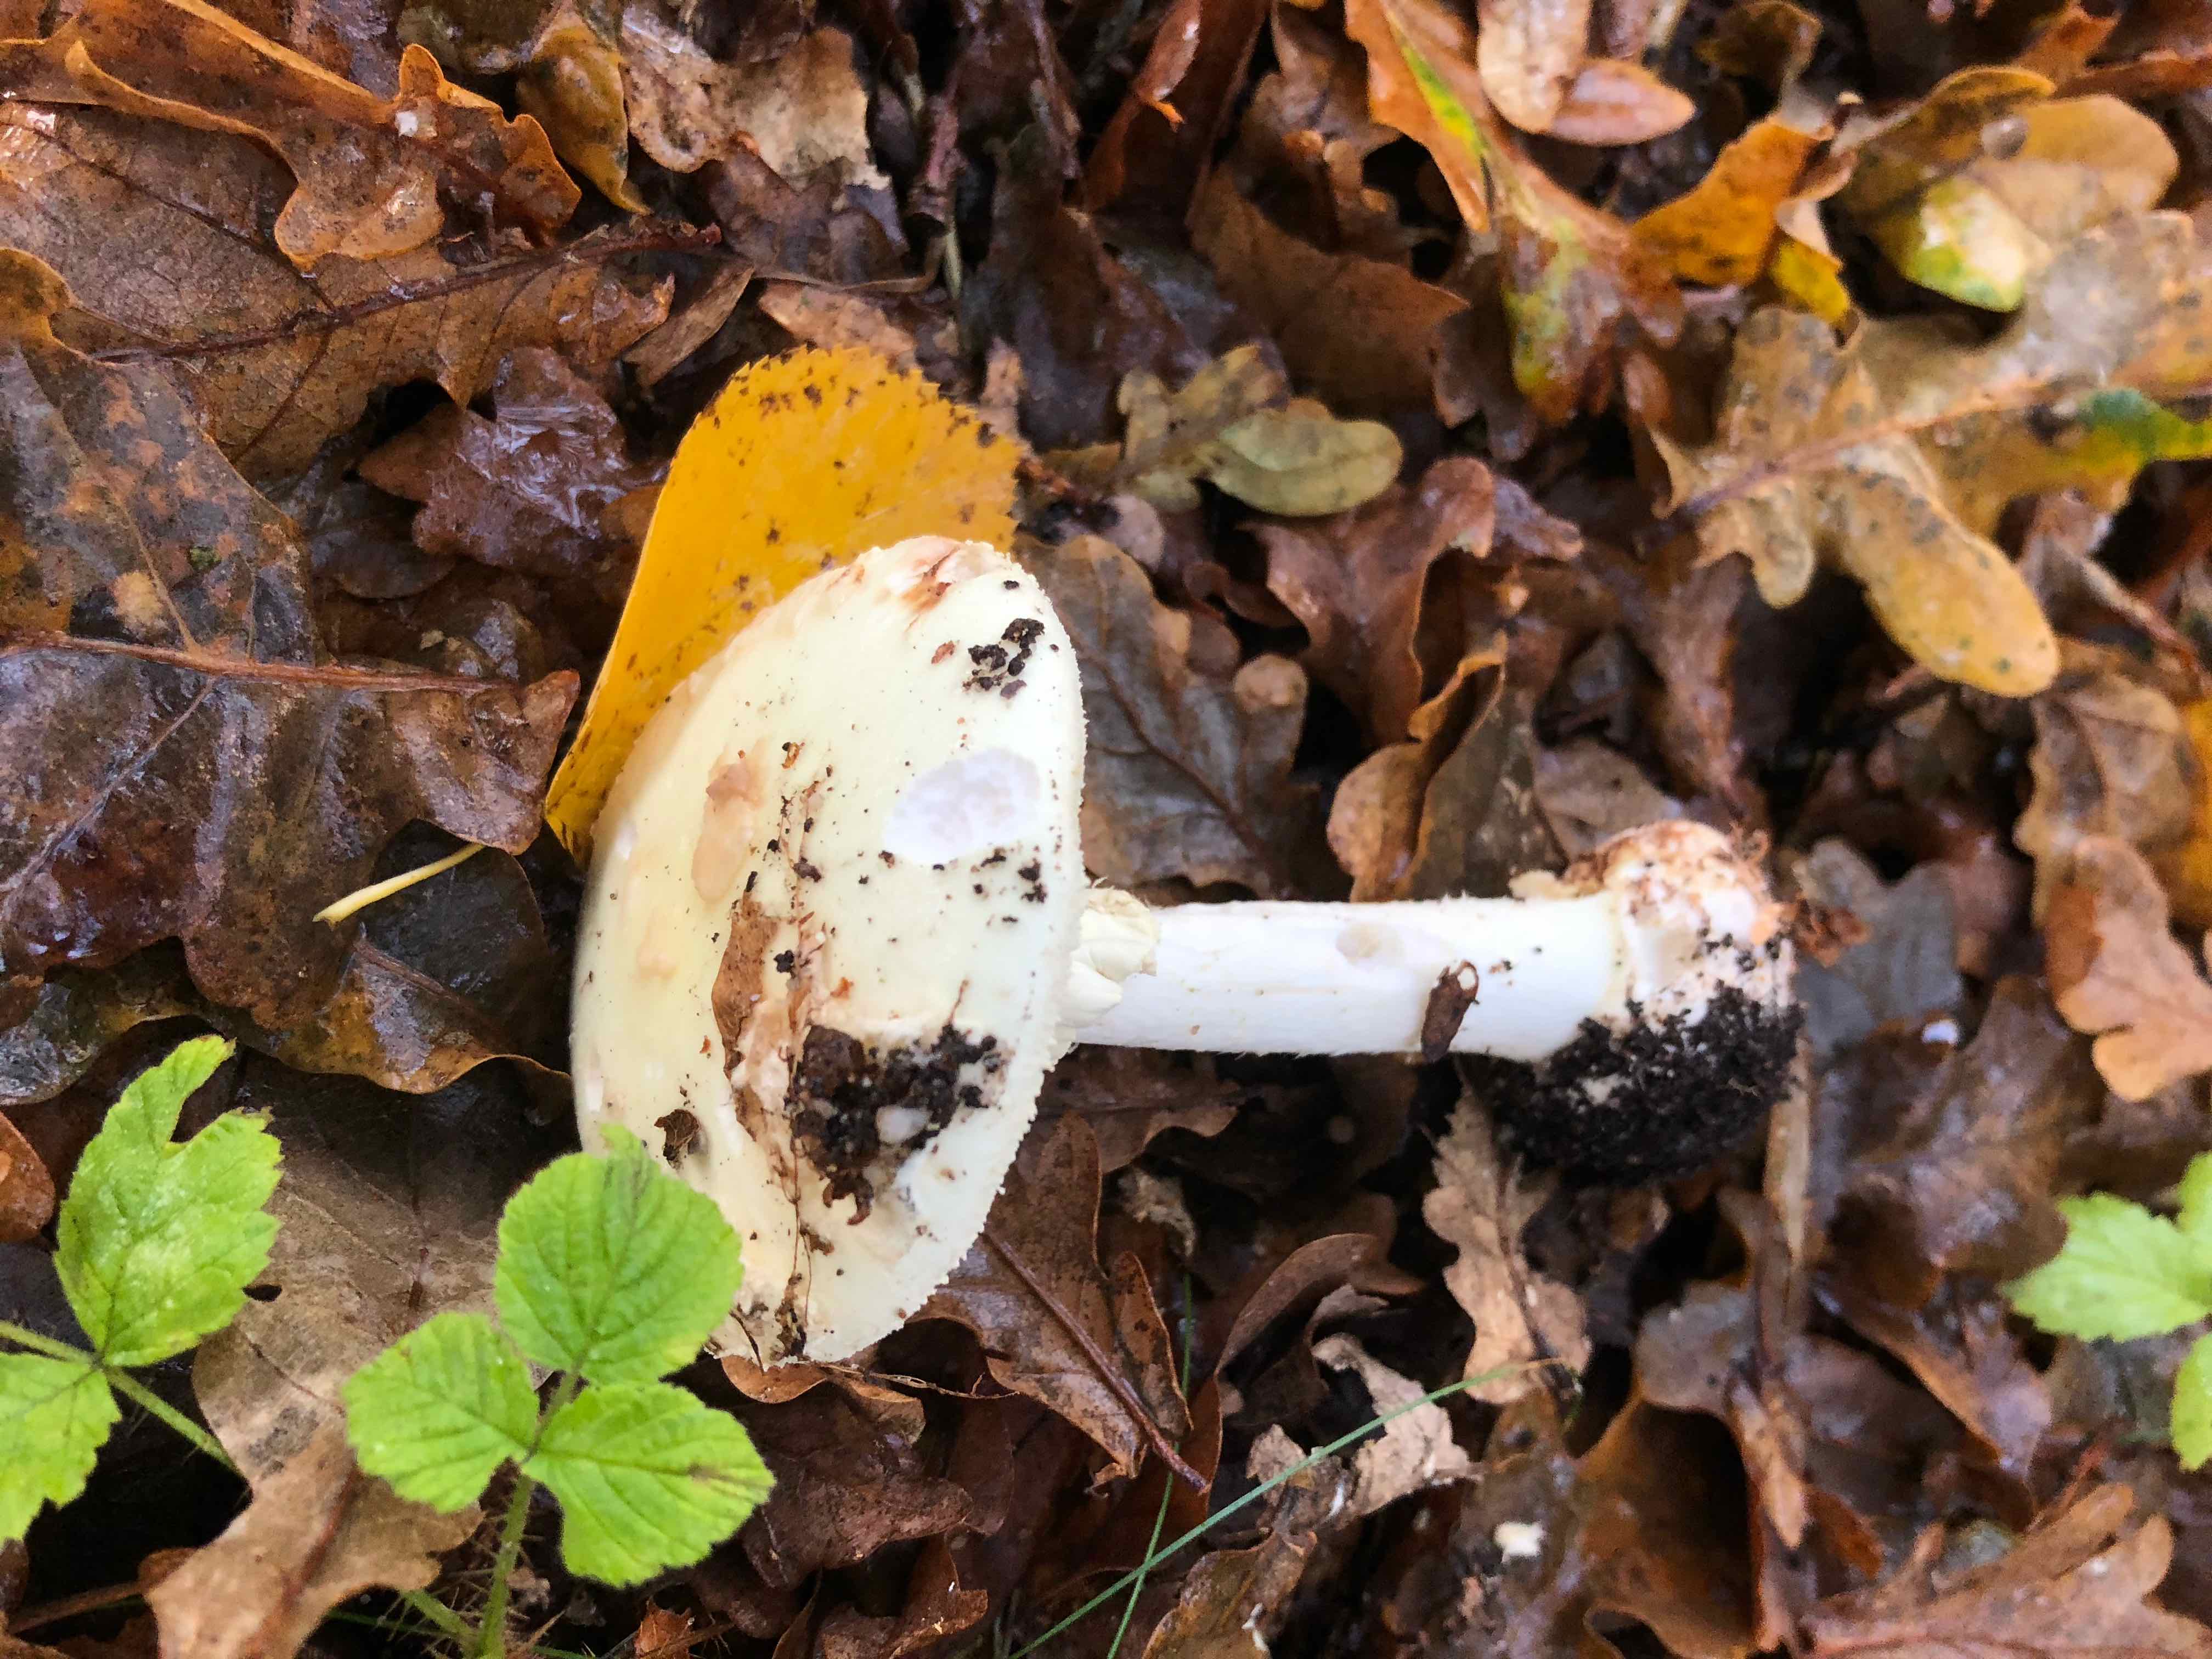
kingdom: Fungi
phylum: Basidiomycota
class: Agaricomycetes
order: Agaricales
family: Amanitaceae
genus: Amanita
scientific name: Amanita citrina
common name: kugleknoldet fluesvamp
